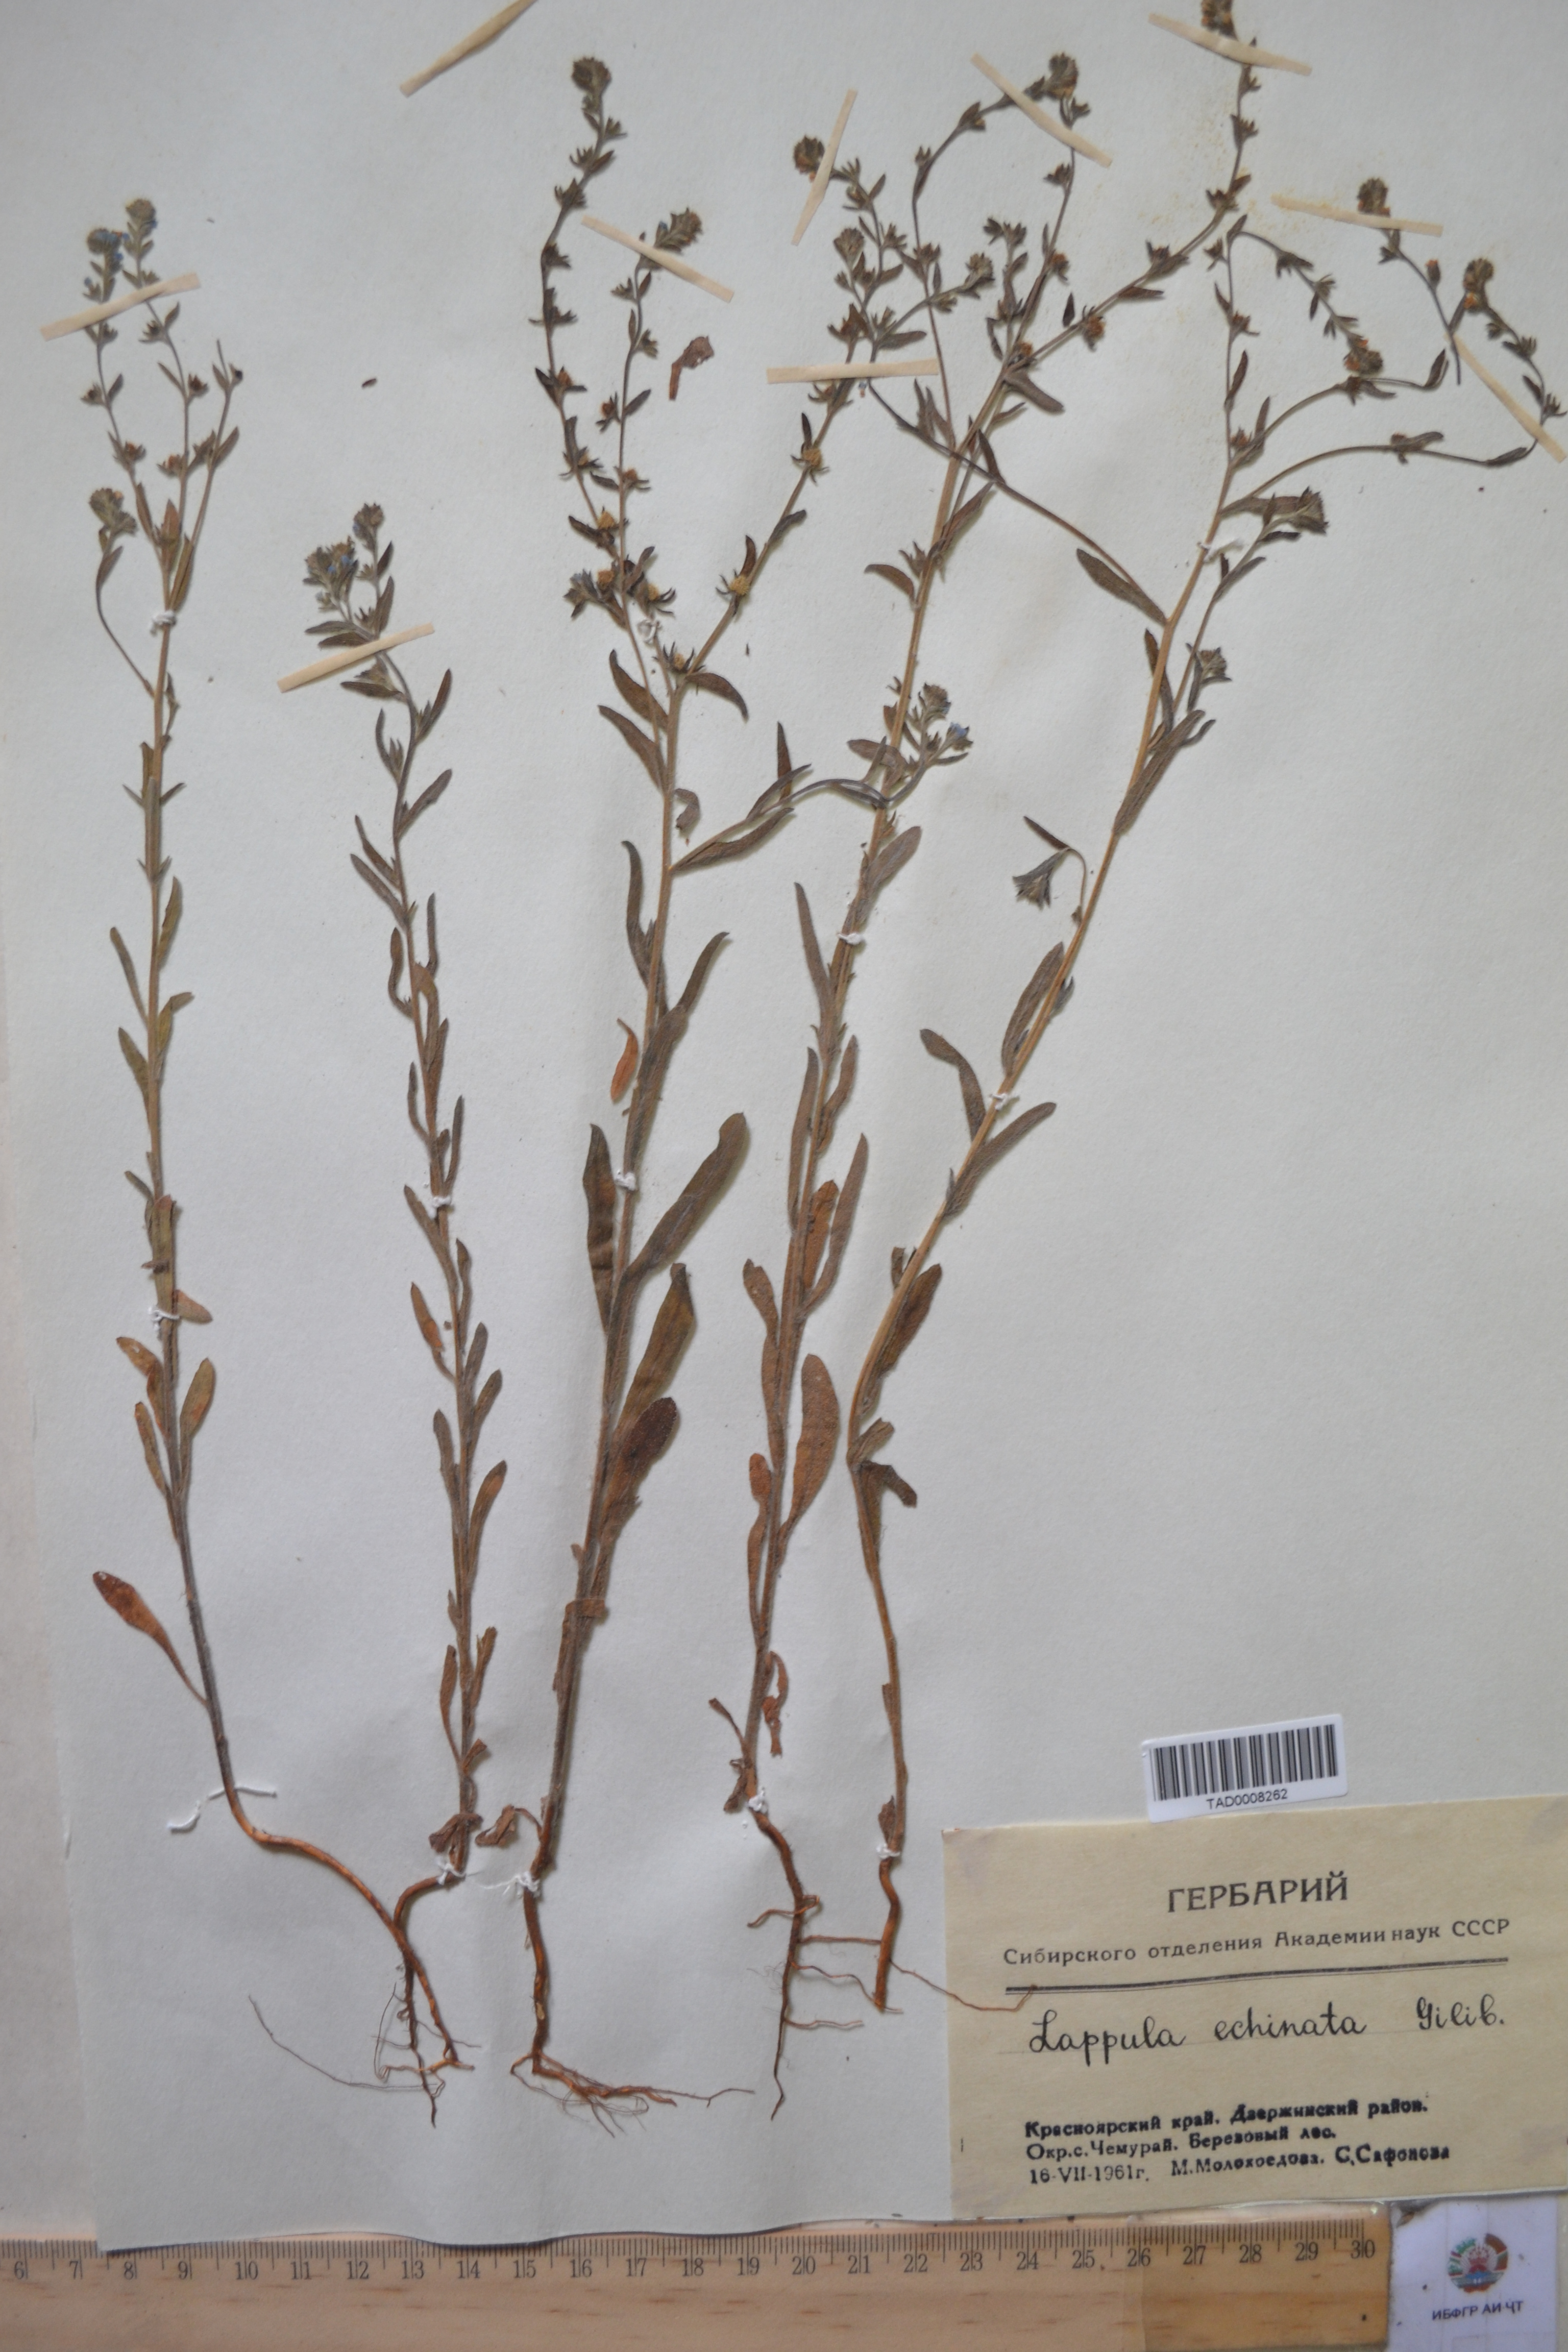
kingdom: Plantae
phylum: Tracheophyta
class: Magnoliopsida
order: Boraginales
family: Boraginaceae
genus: Lappula
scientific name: Lappula squarrosa
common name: European stickseed
